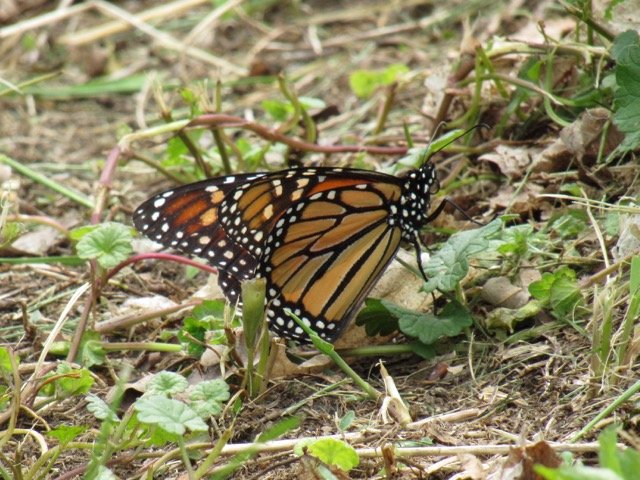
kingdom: Animalia
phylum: Arthropoda
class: Insecta
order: Lepidoptera
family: Nymphalidae
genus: Danaus
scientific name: Danaus plexippus
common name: Monarch
